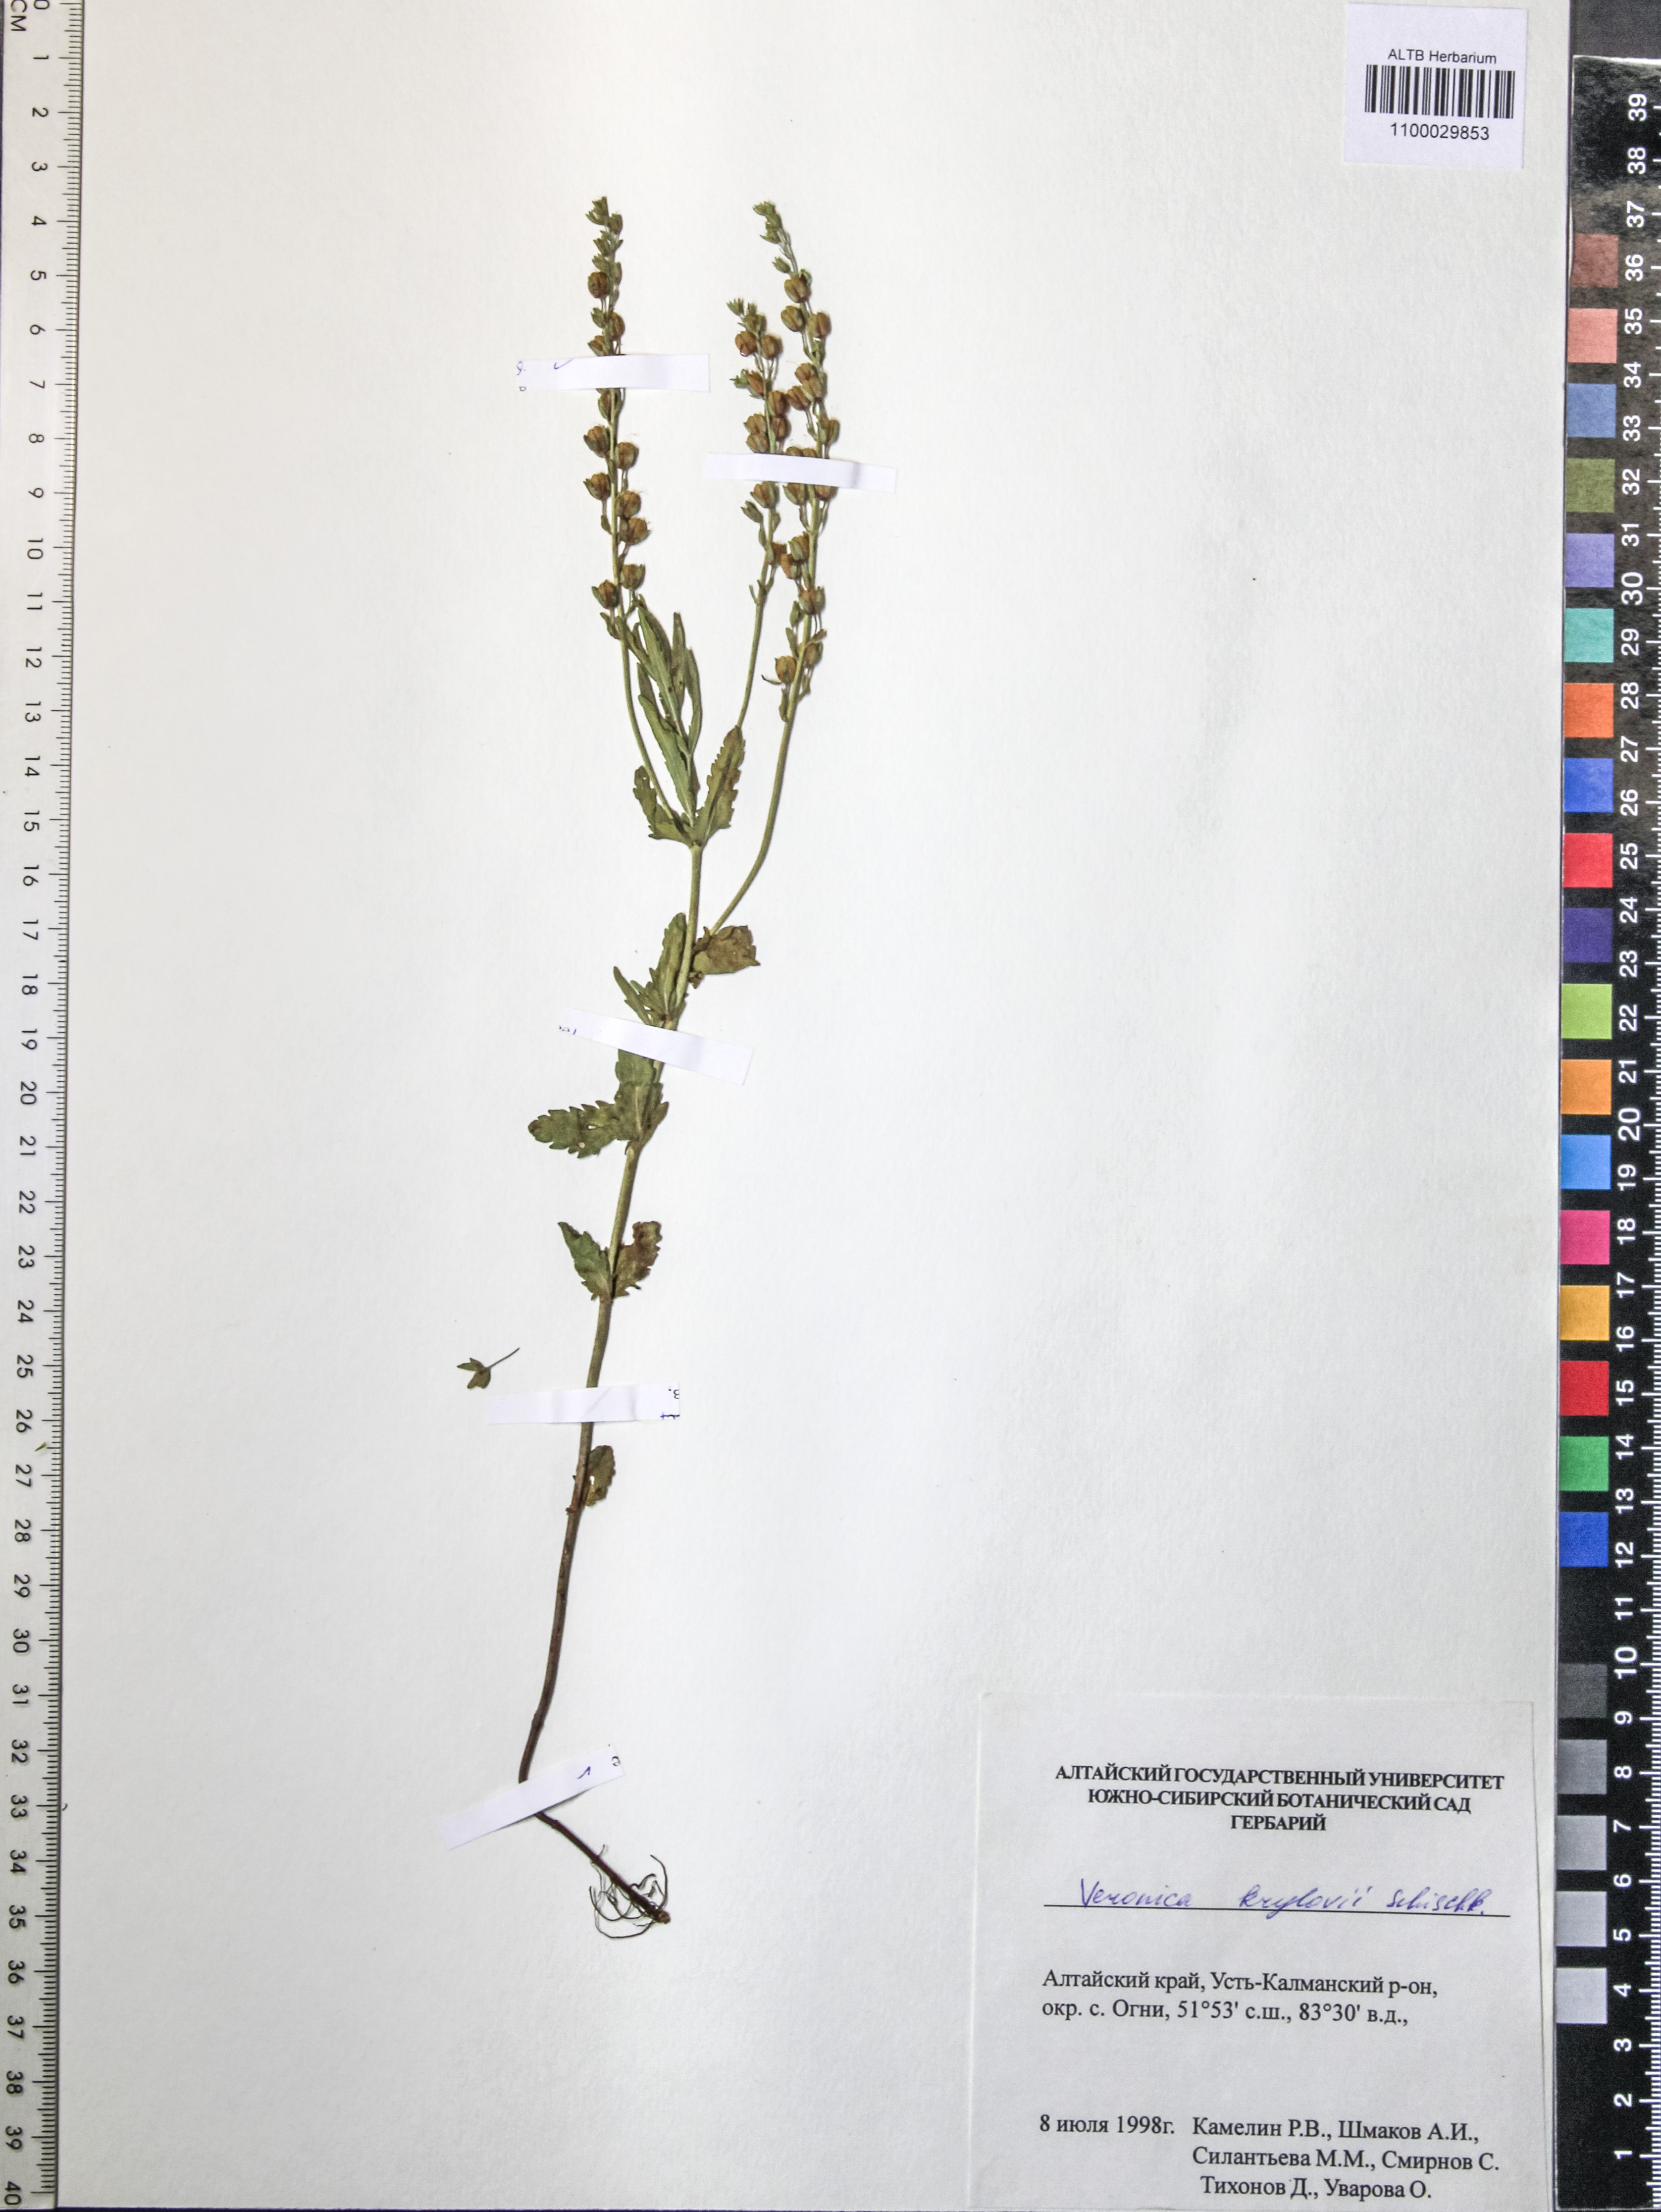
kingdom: Plantae
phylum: Tracheophyta
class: Magnoliopsida
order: Lamiales
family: Plantaginaceae
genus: Veronica
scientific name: Veronica krylovii
